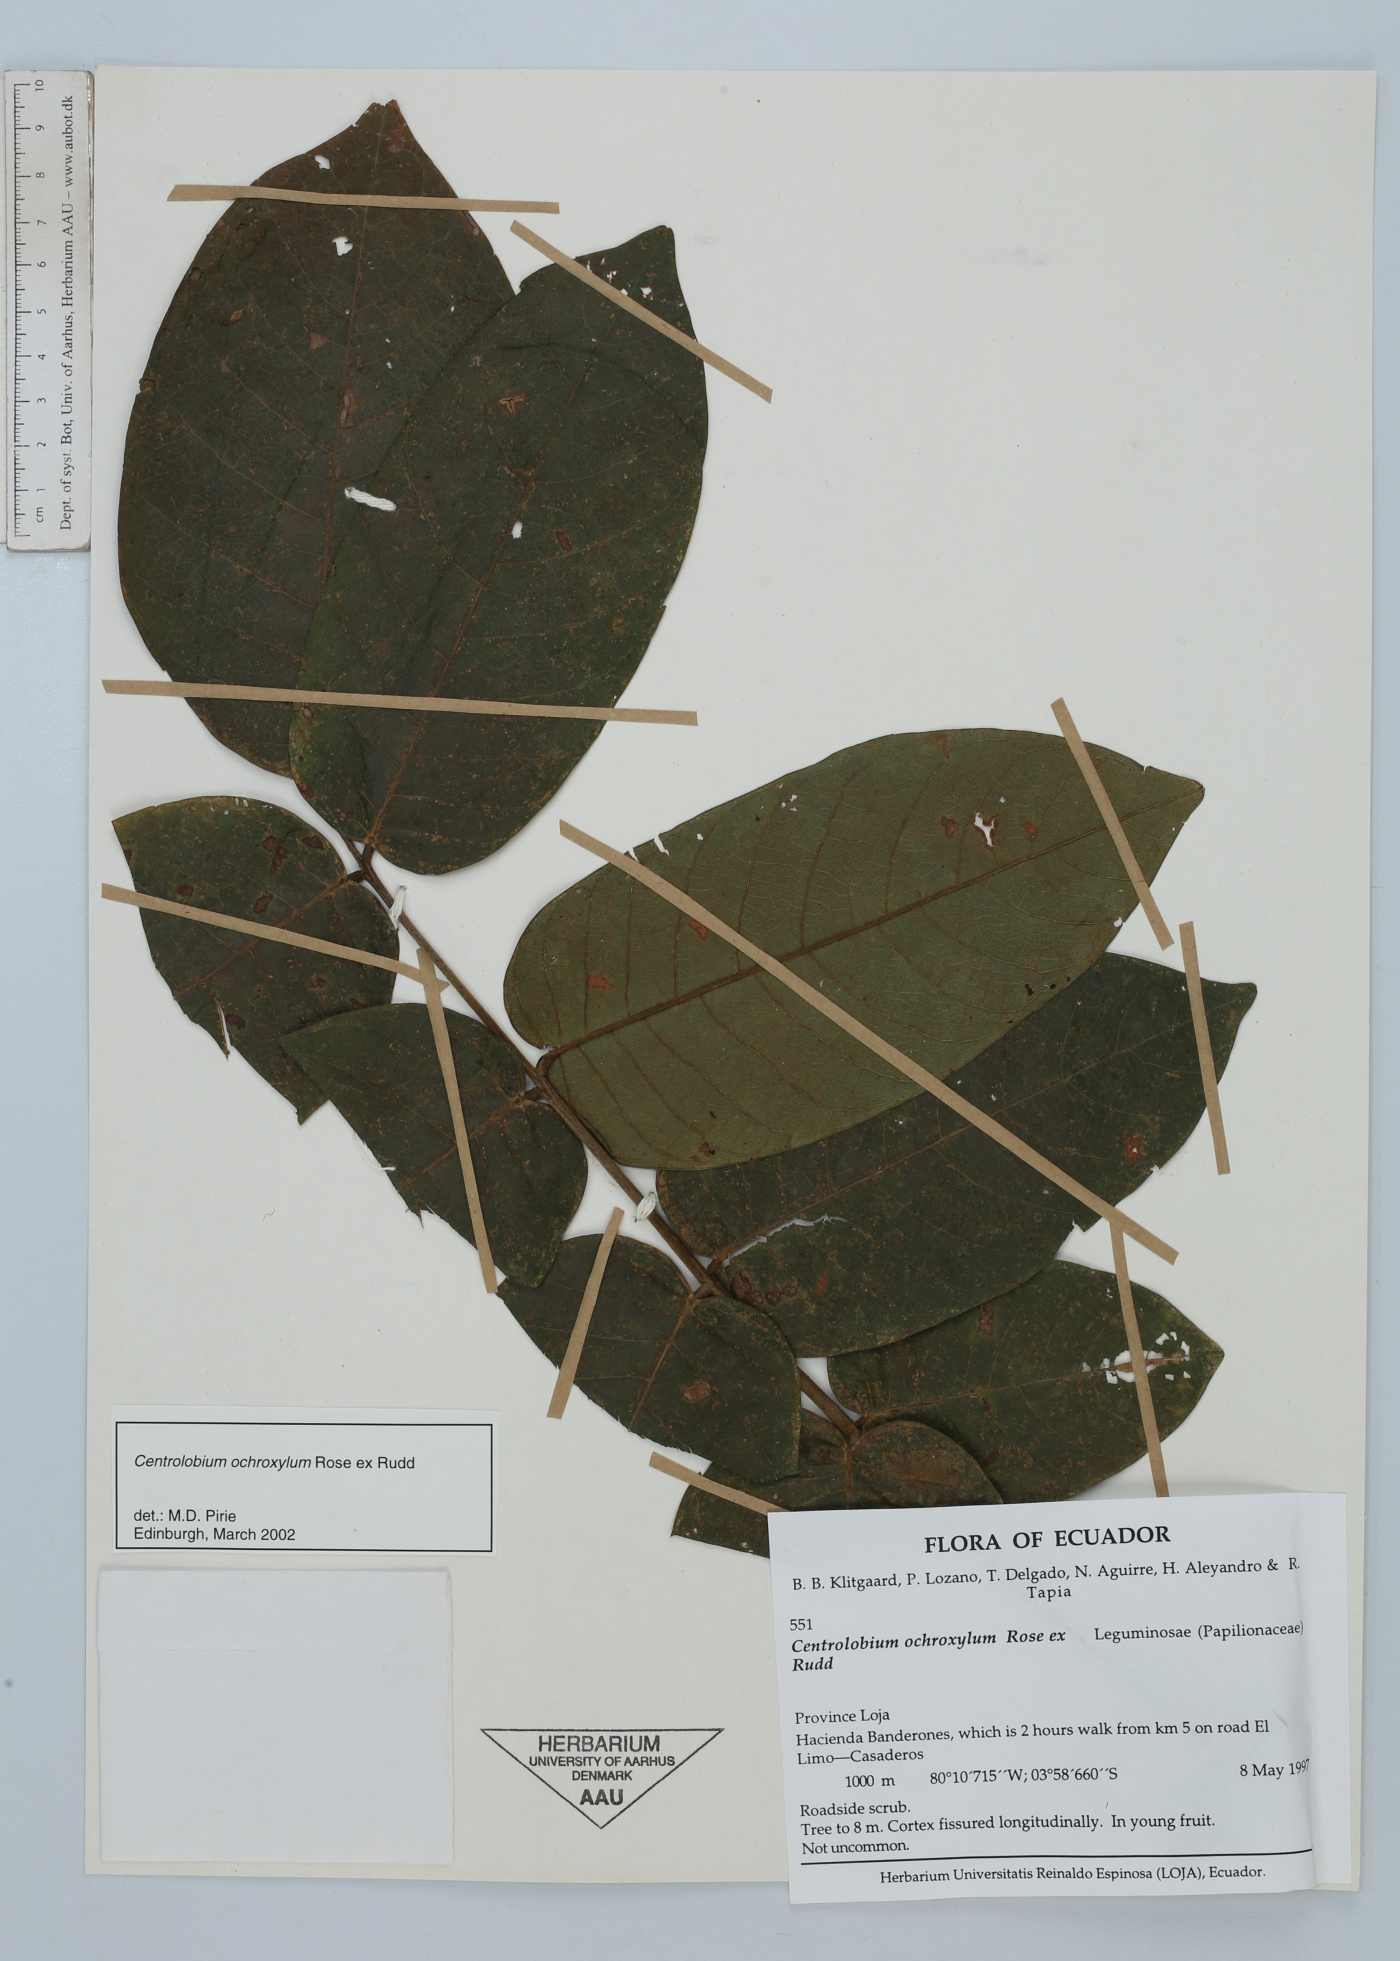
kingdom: Plantae
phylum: Tracheophyta
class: Magnoliopsida
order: Fabales
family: Fabaceae
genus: Centrolobium
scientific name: Centrolobium ochroxylum
